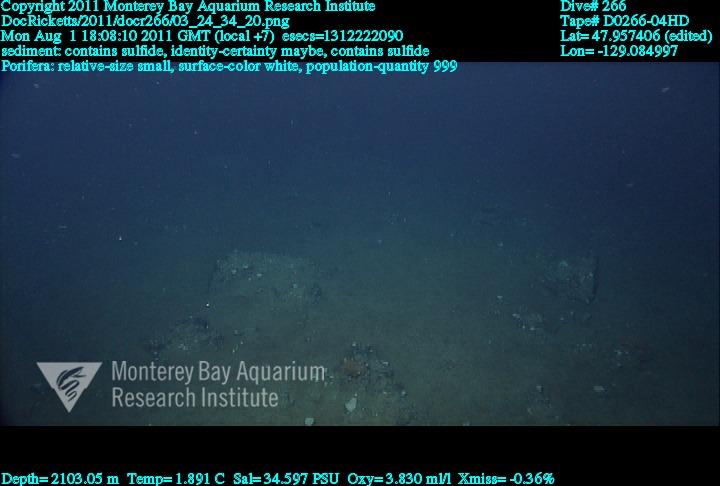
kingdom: Animalia
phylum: Porifera
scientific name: Porifera
